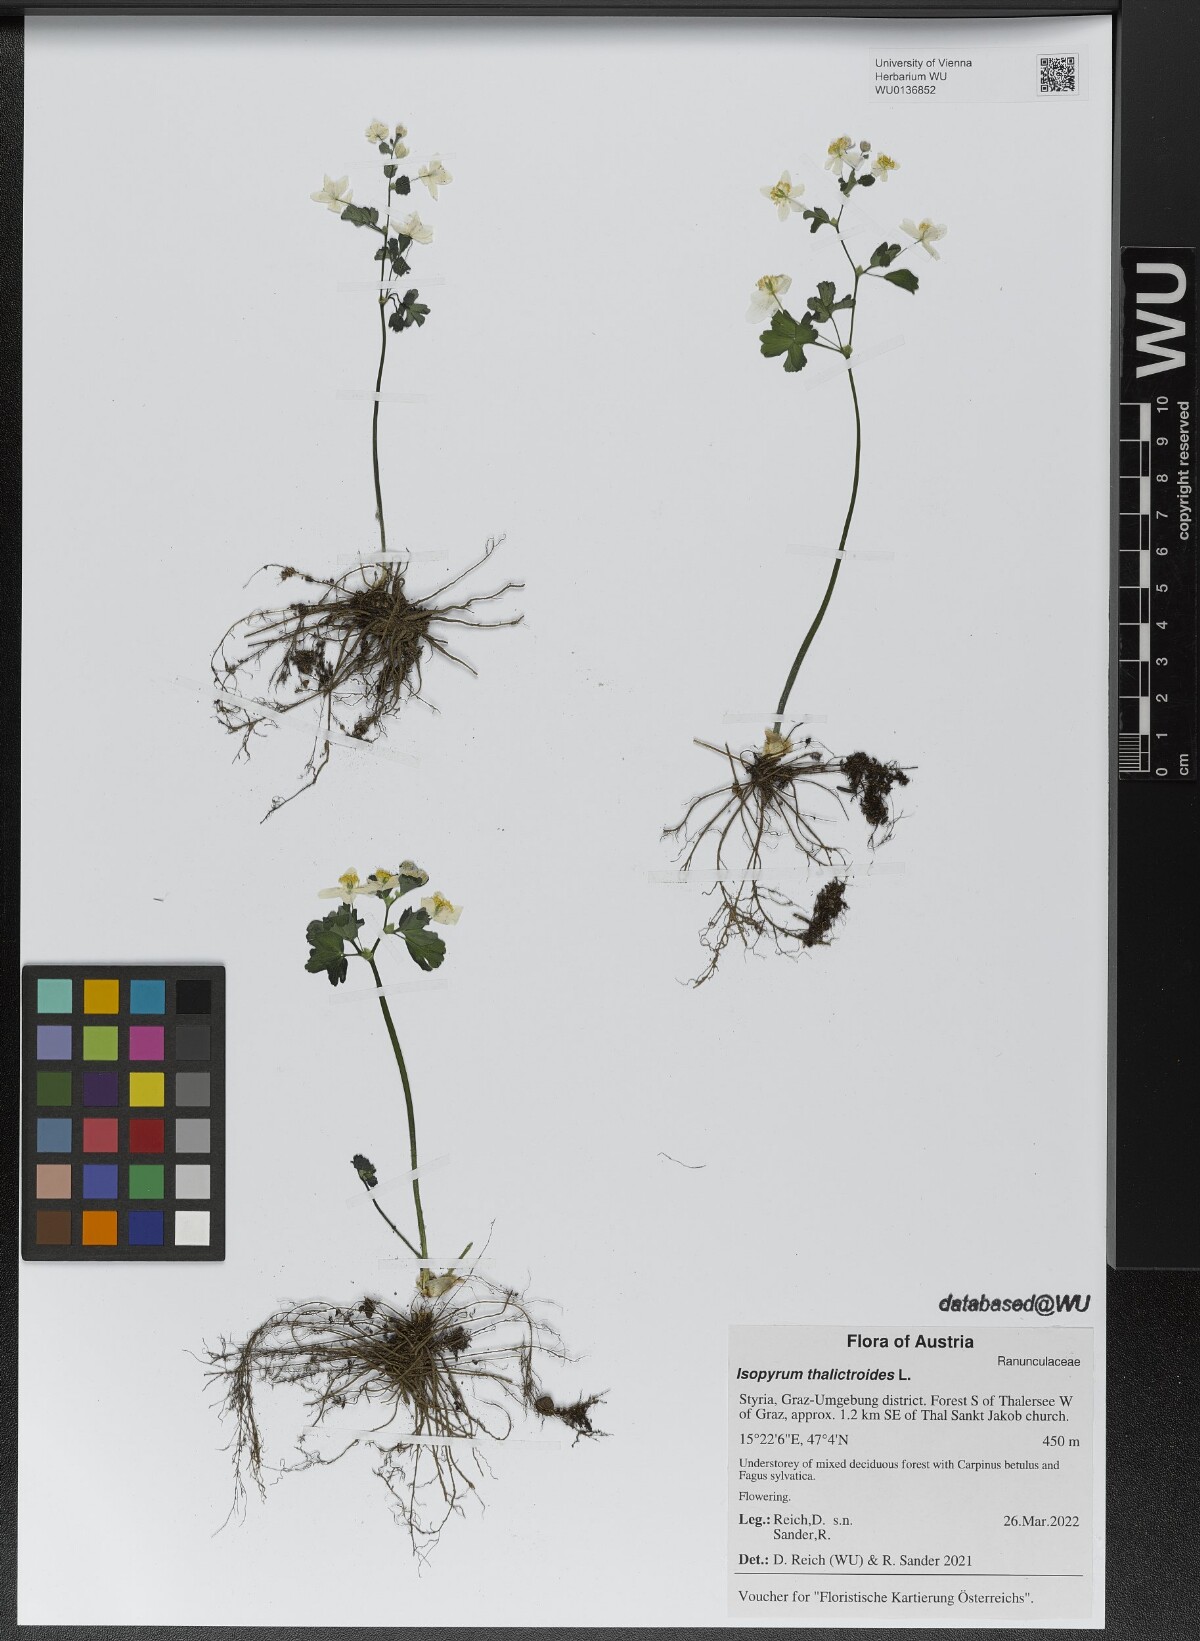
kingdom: Plantae
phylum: Tracheophyta
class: Magnoliopsida
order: Ranunculales
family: Ranunculaceae
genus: Isopyrum
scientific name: Isopyrum thalictroides
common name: Isopyrum
